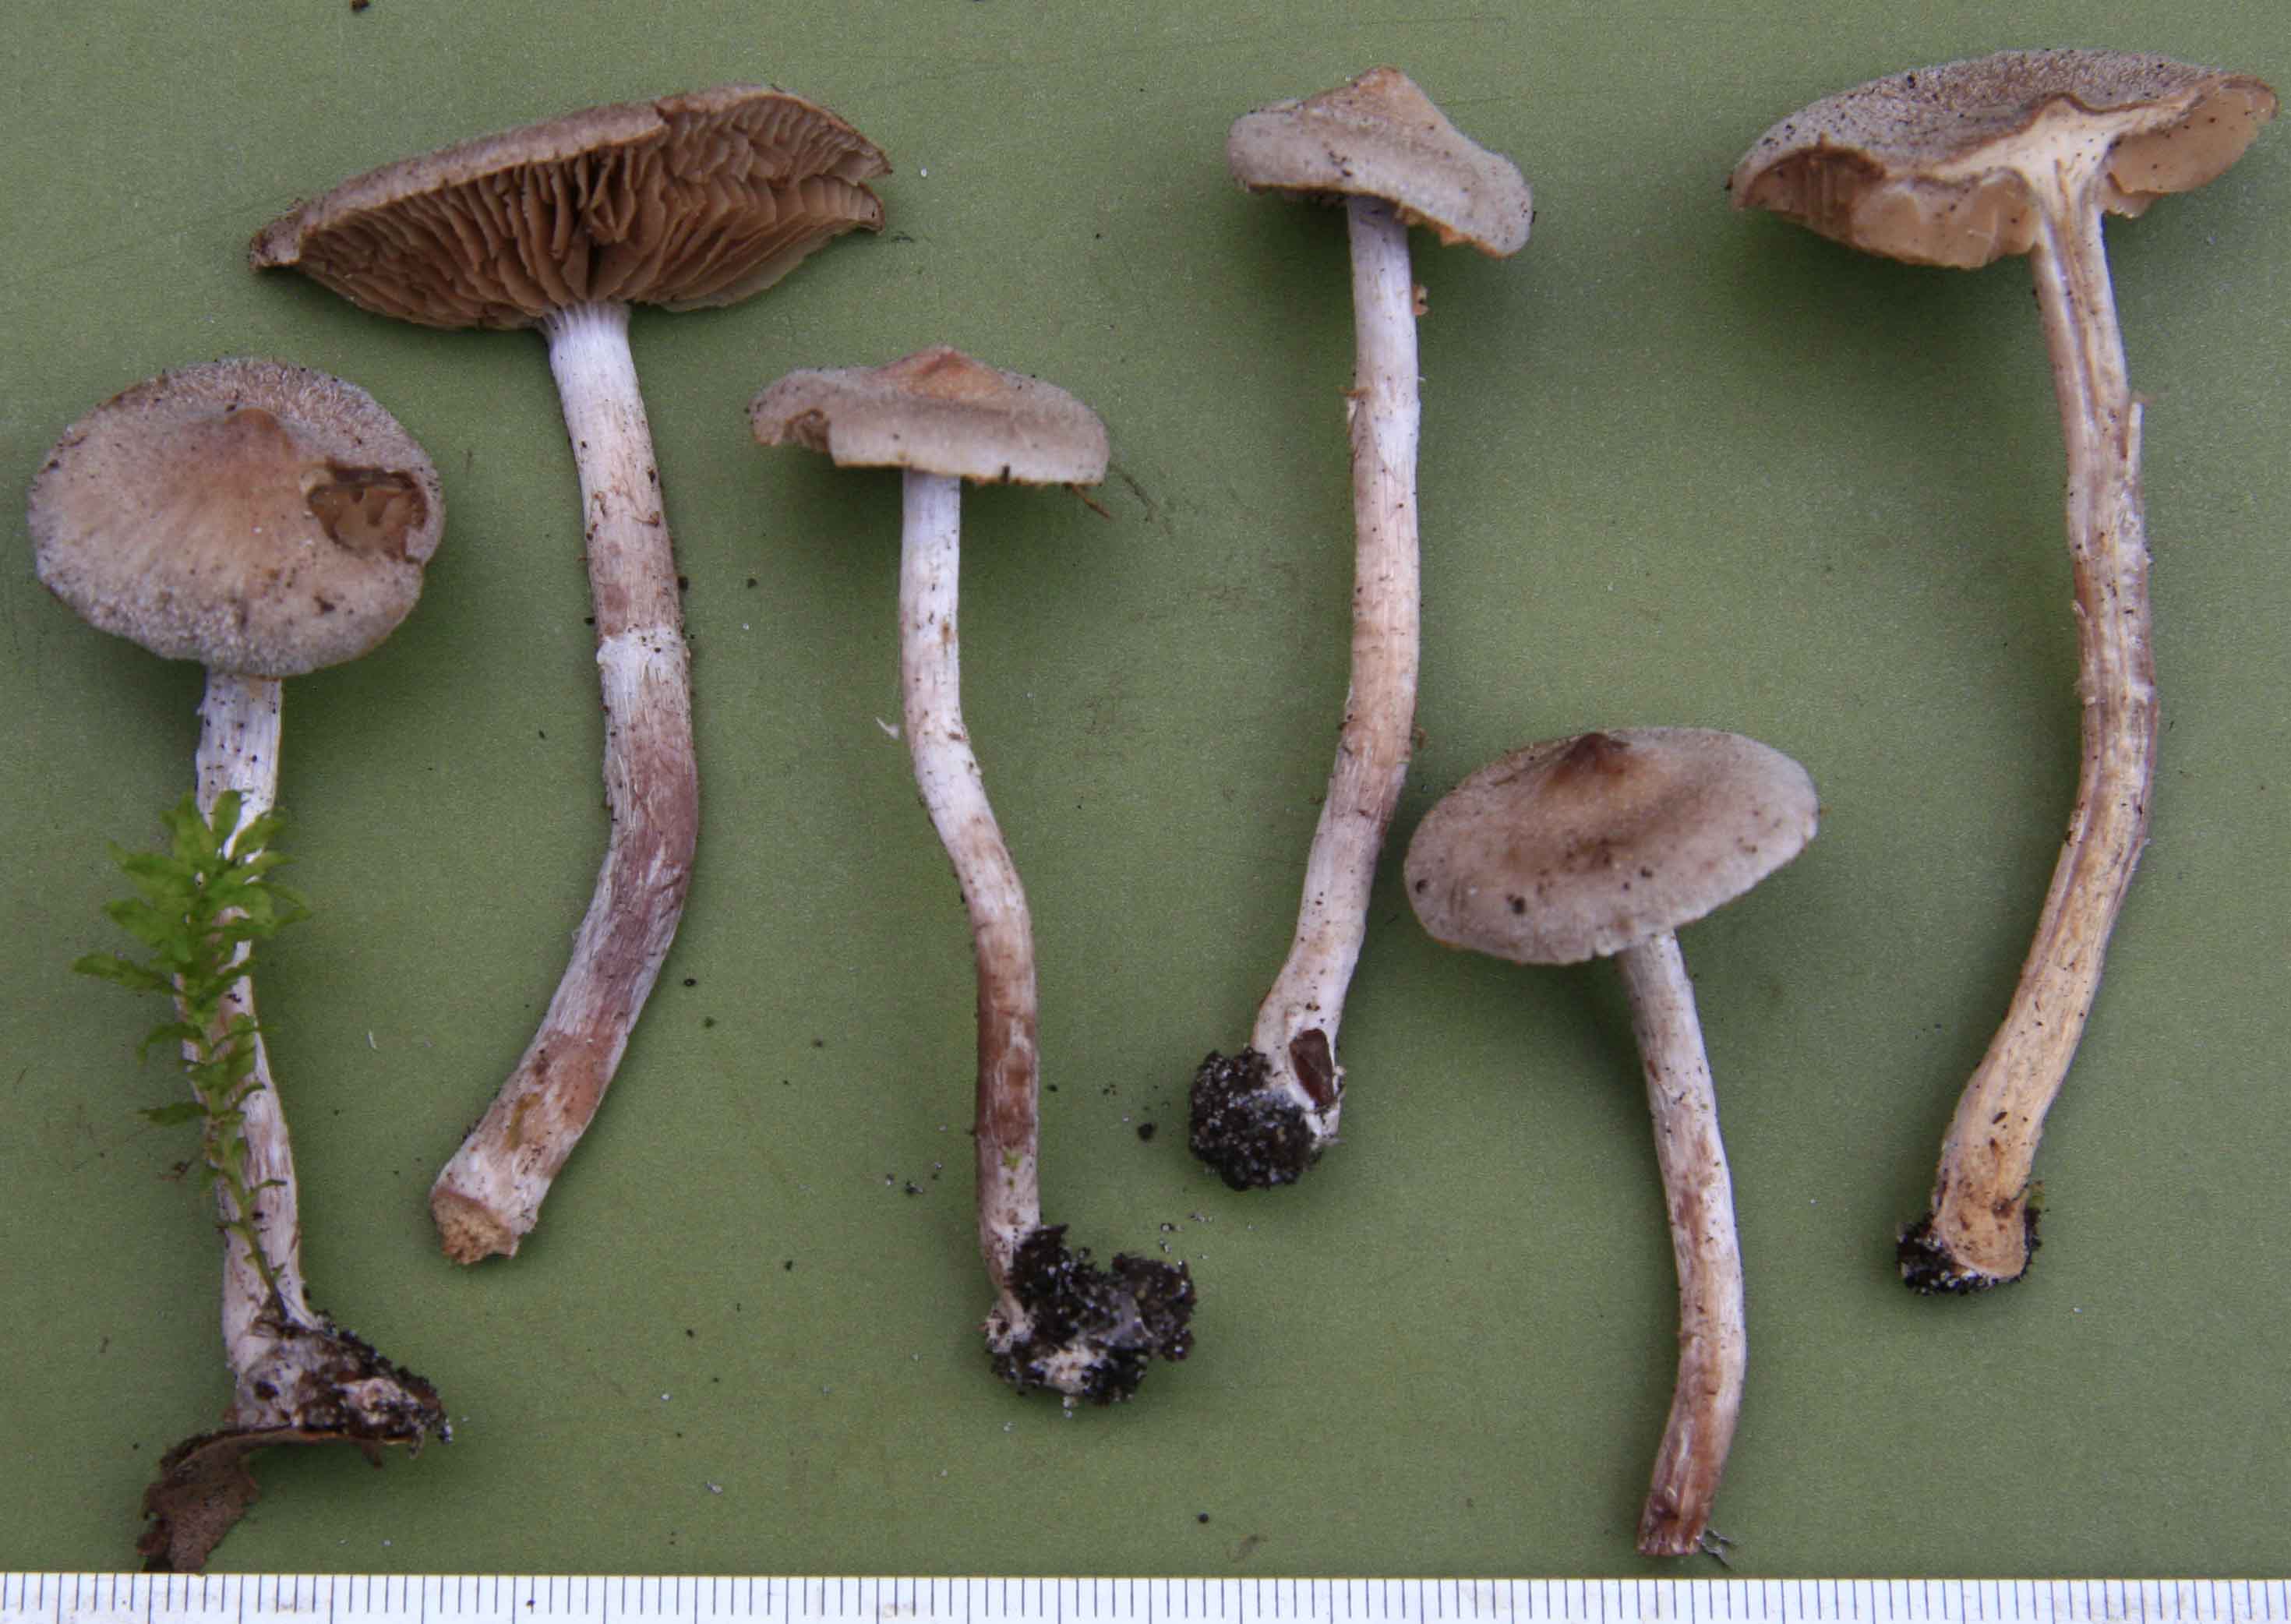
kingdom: Fungi
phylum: Basidiomycota
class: Agaricomycetes
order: Agaricales
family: Cortinariaceae
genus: Cortinarius
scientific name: Cortinarius hemitrichus
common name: hvidfnugget slørhat
